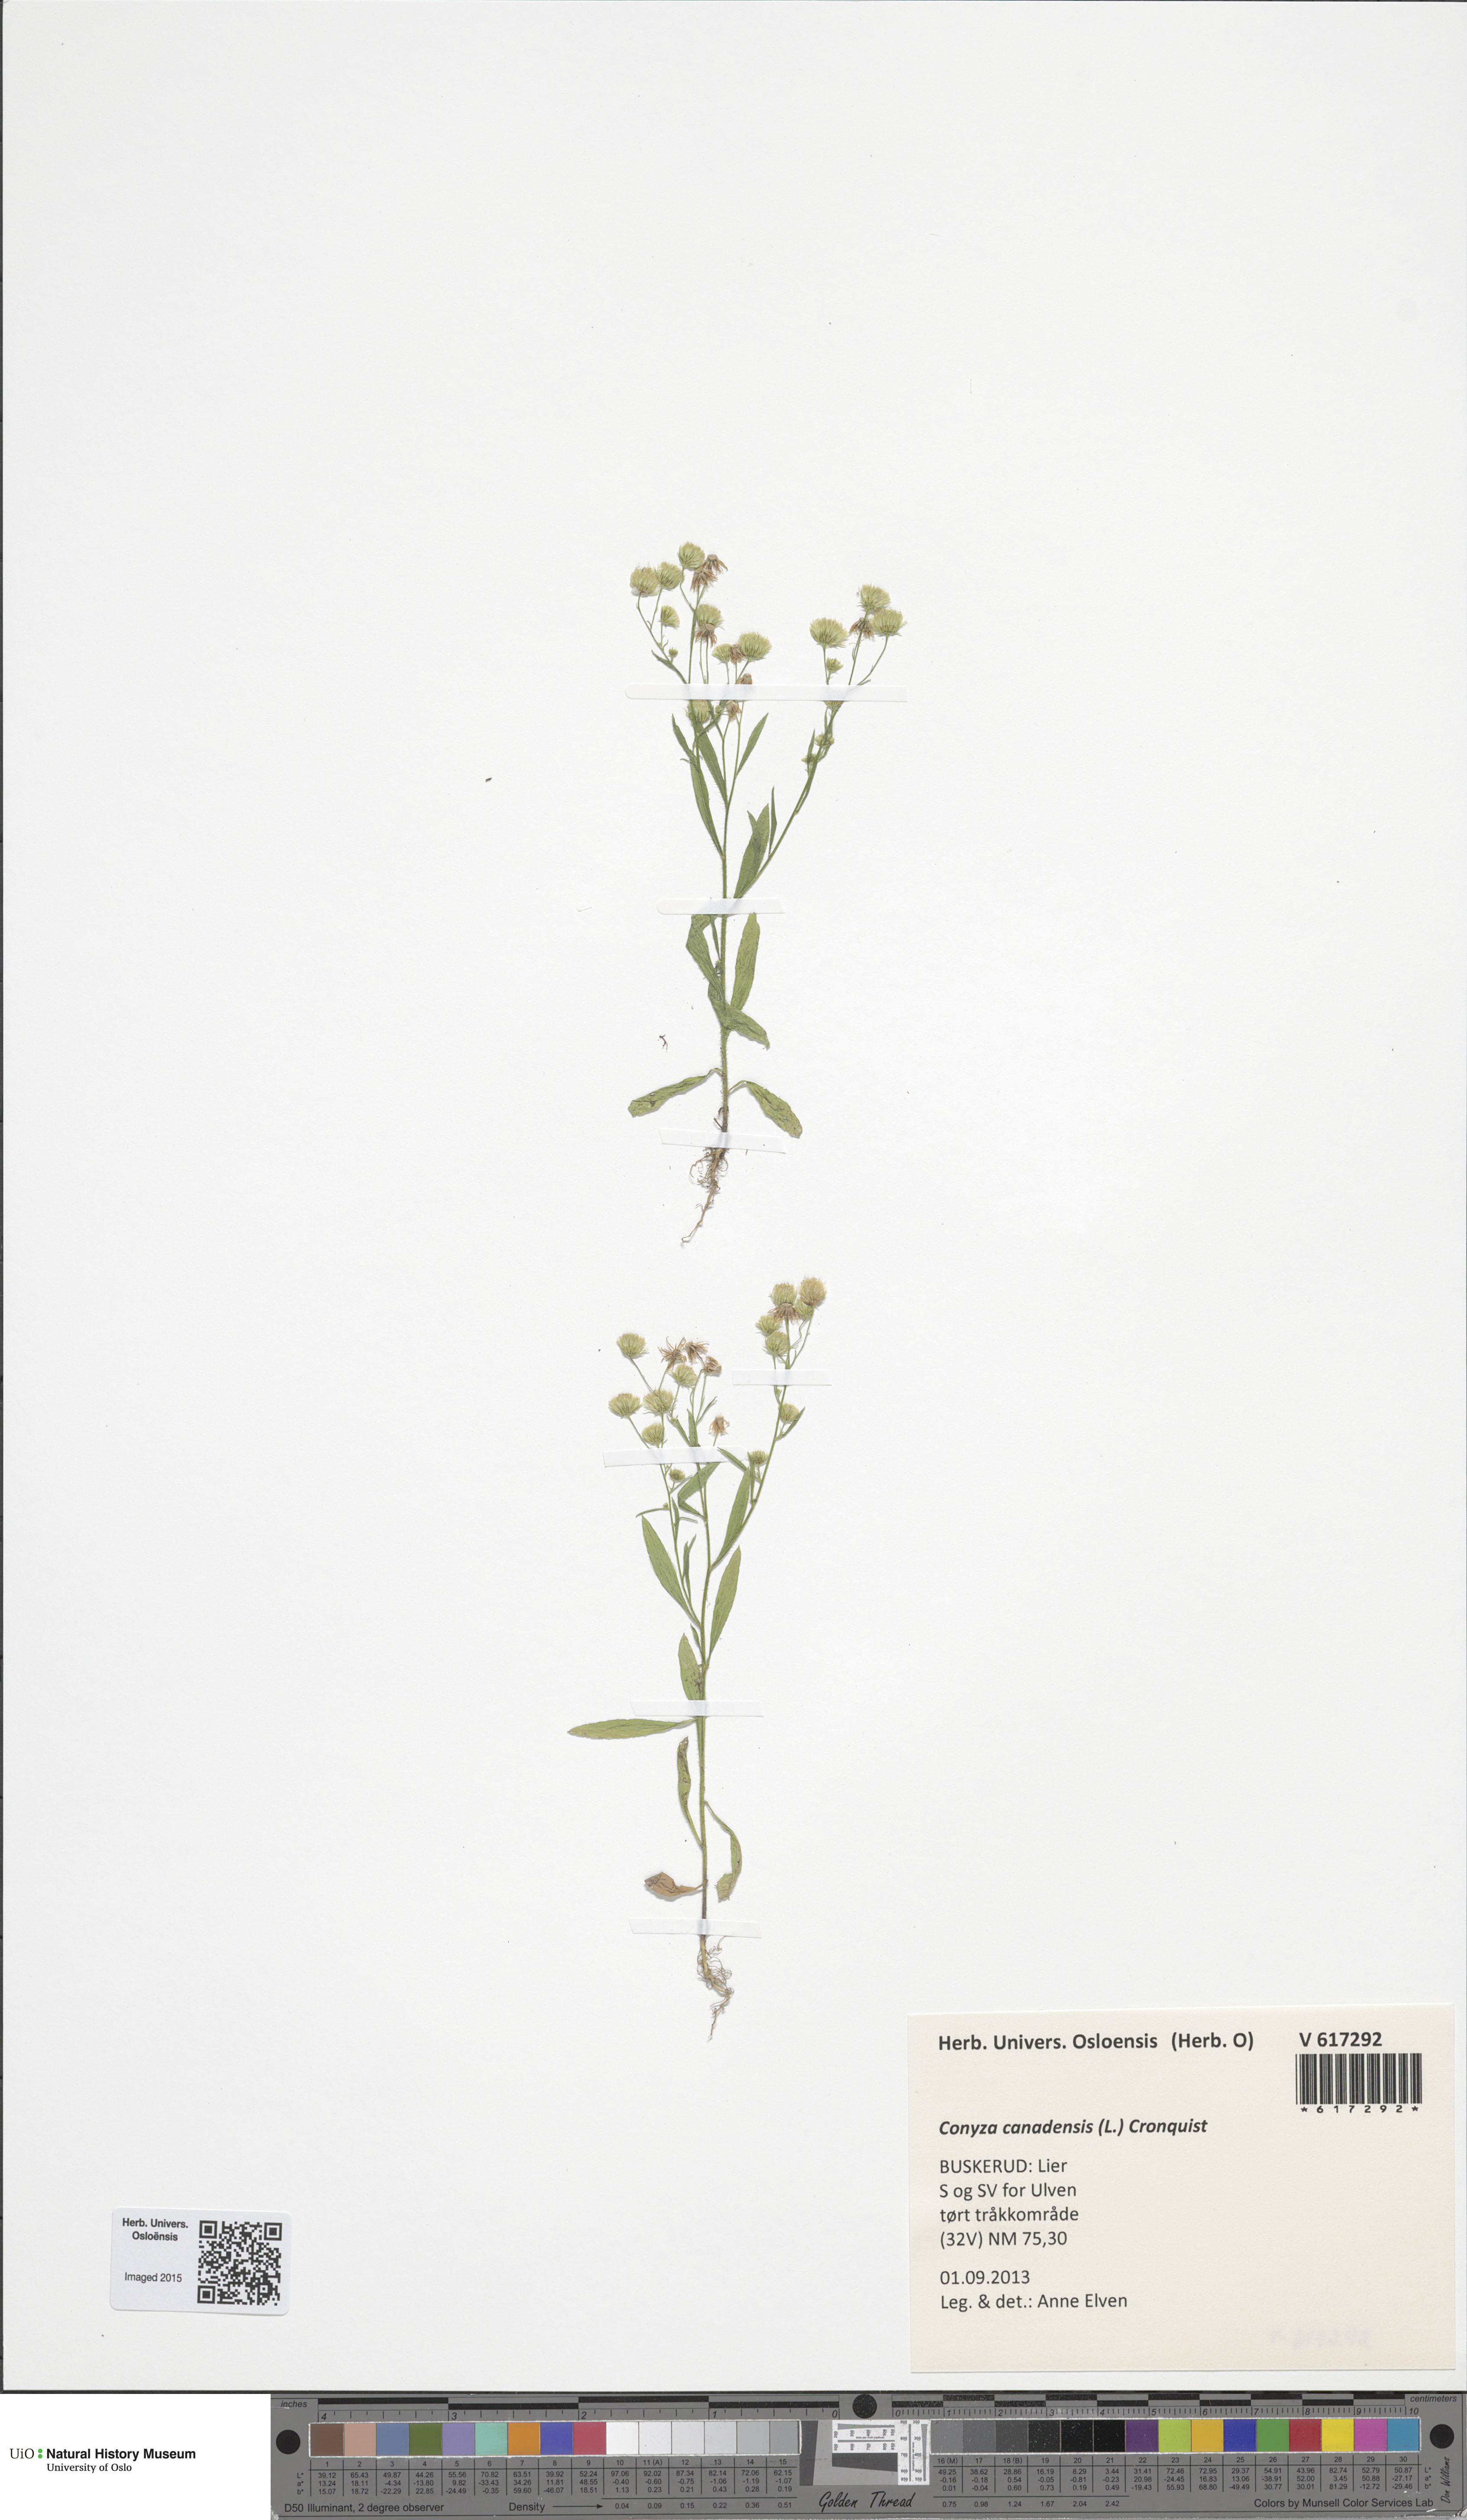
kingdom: Plantae
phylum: Tracheophyta
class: Magnoliopsida
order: Asterales
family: Asteraceae
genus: Erigeron
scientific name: Erigeron canadensis
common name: Canadian fleabane
